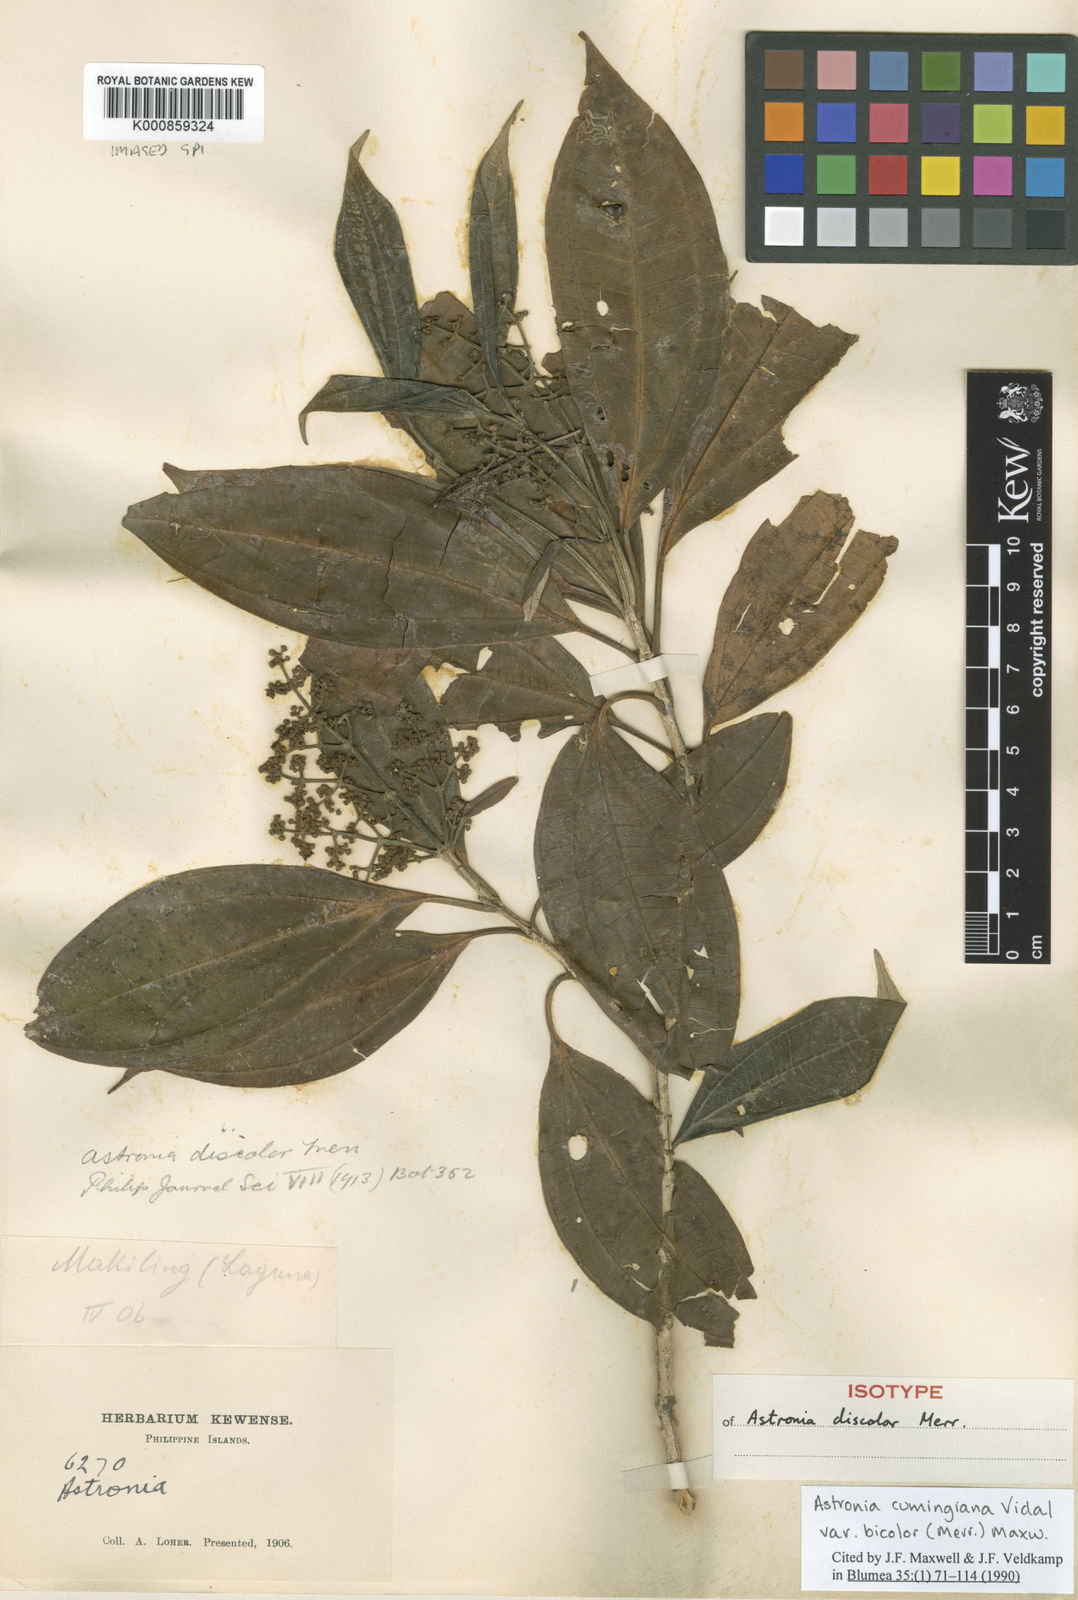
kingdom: Plantae
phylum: Tracheophyta
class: Magnoliopsida
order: Myrtales
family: Melastomataceae
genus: Astronia
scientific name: Astronia cumingiana
